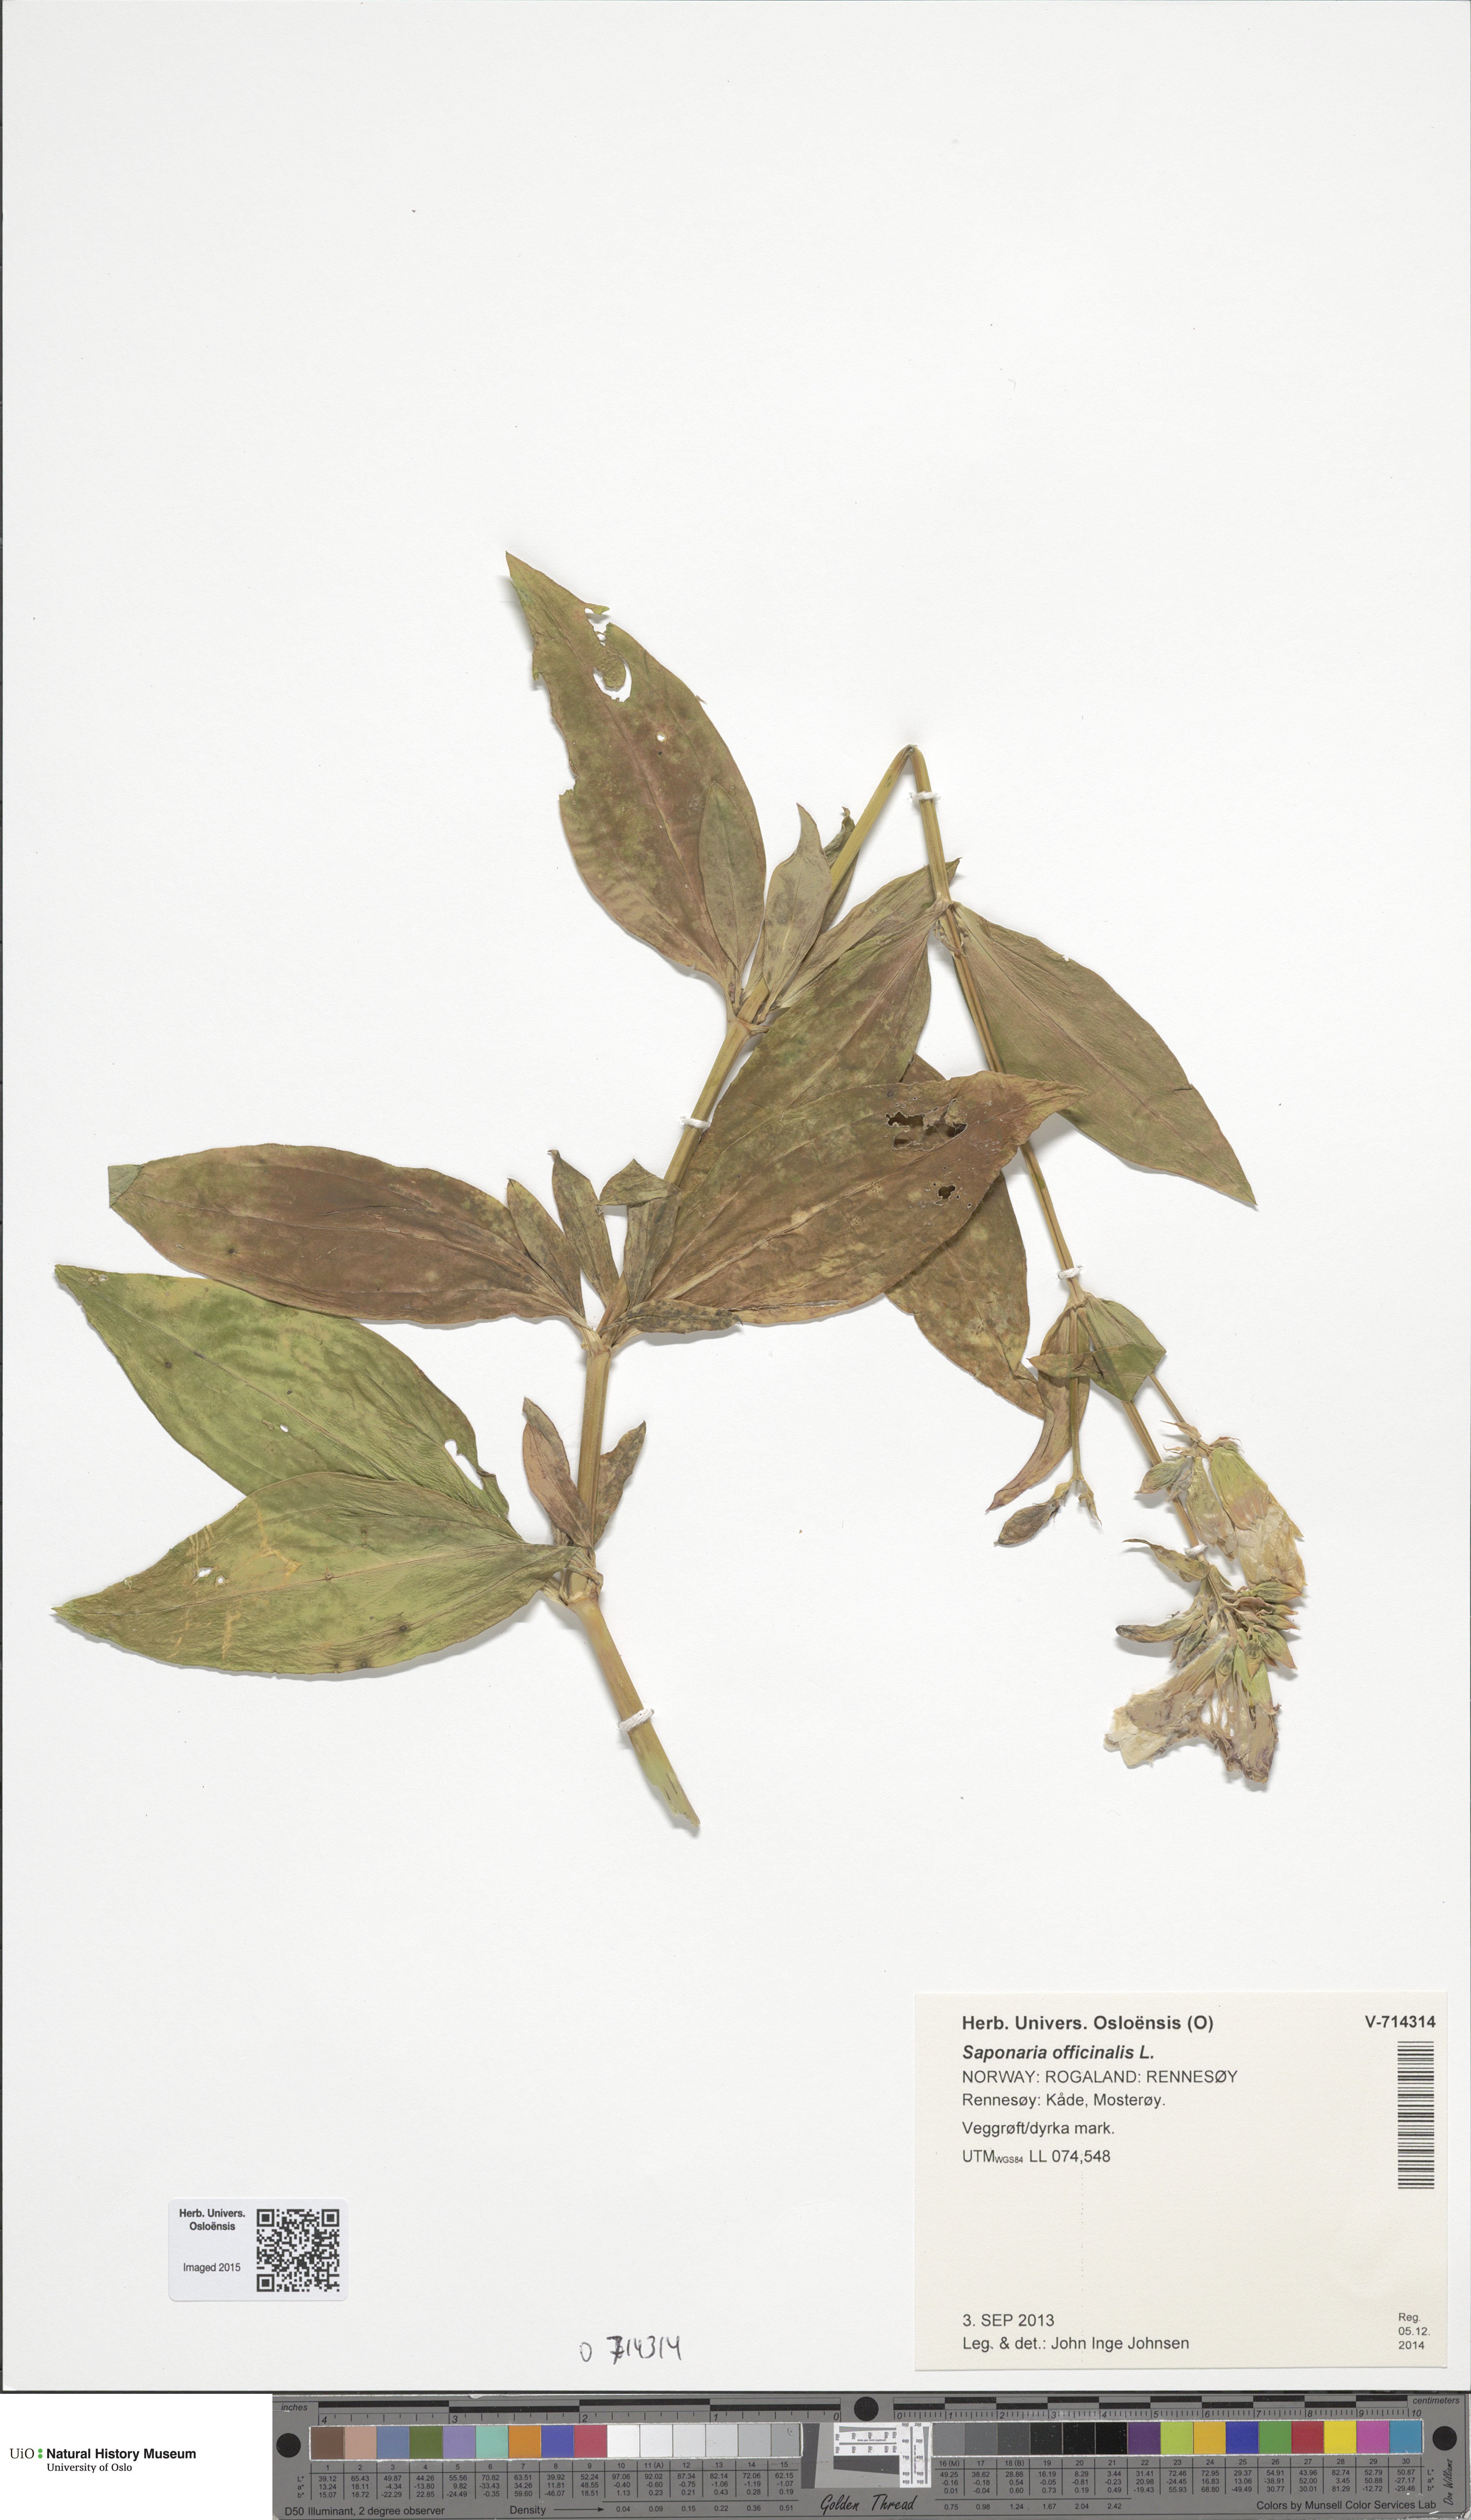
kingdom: Plantae
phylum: Tracheophyta
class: Magnoliopsida
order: Caryophyllales
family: Caryophyllaceae
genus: Saponaria
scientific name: Saponaria officinalis
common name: Soapwort
